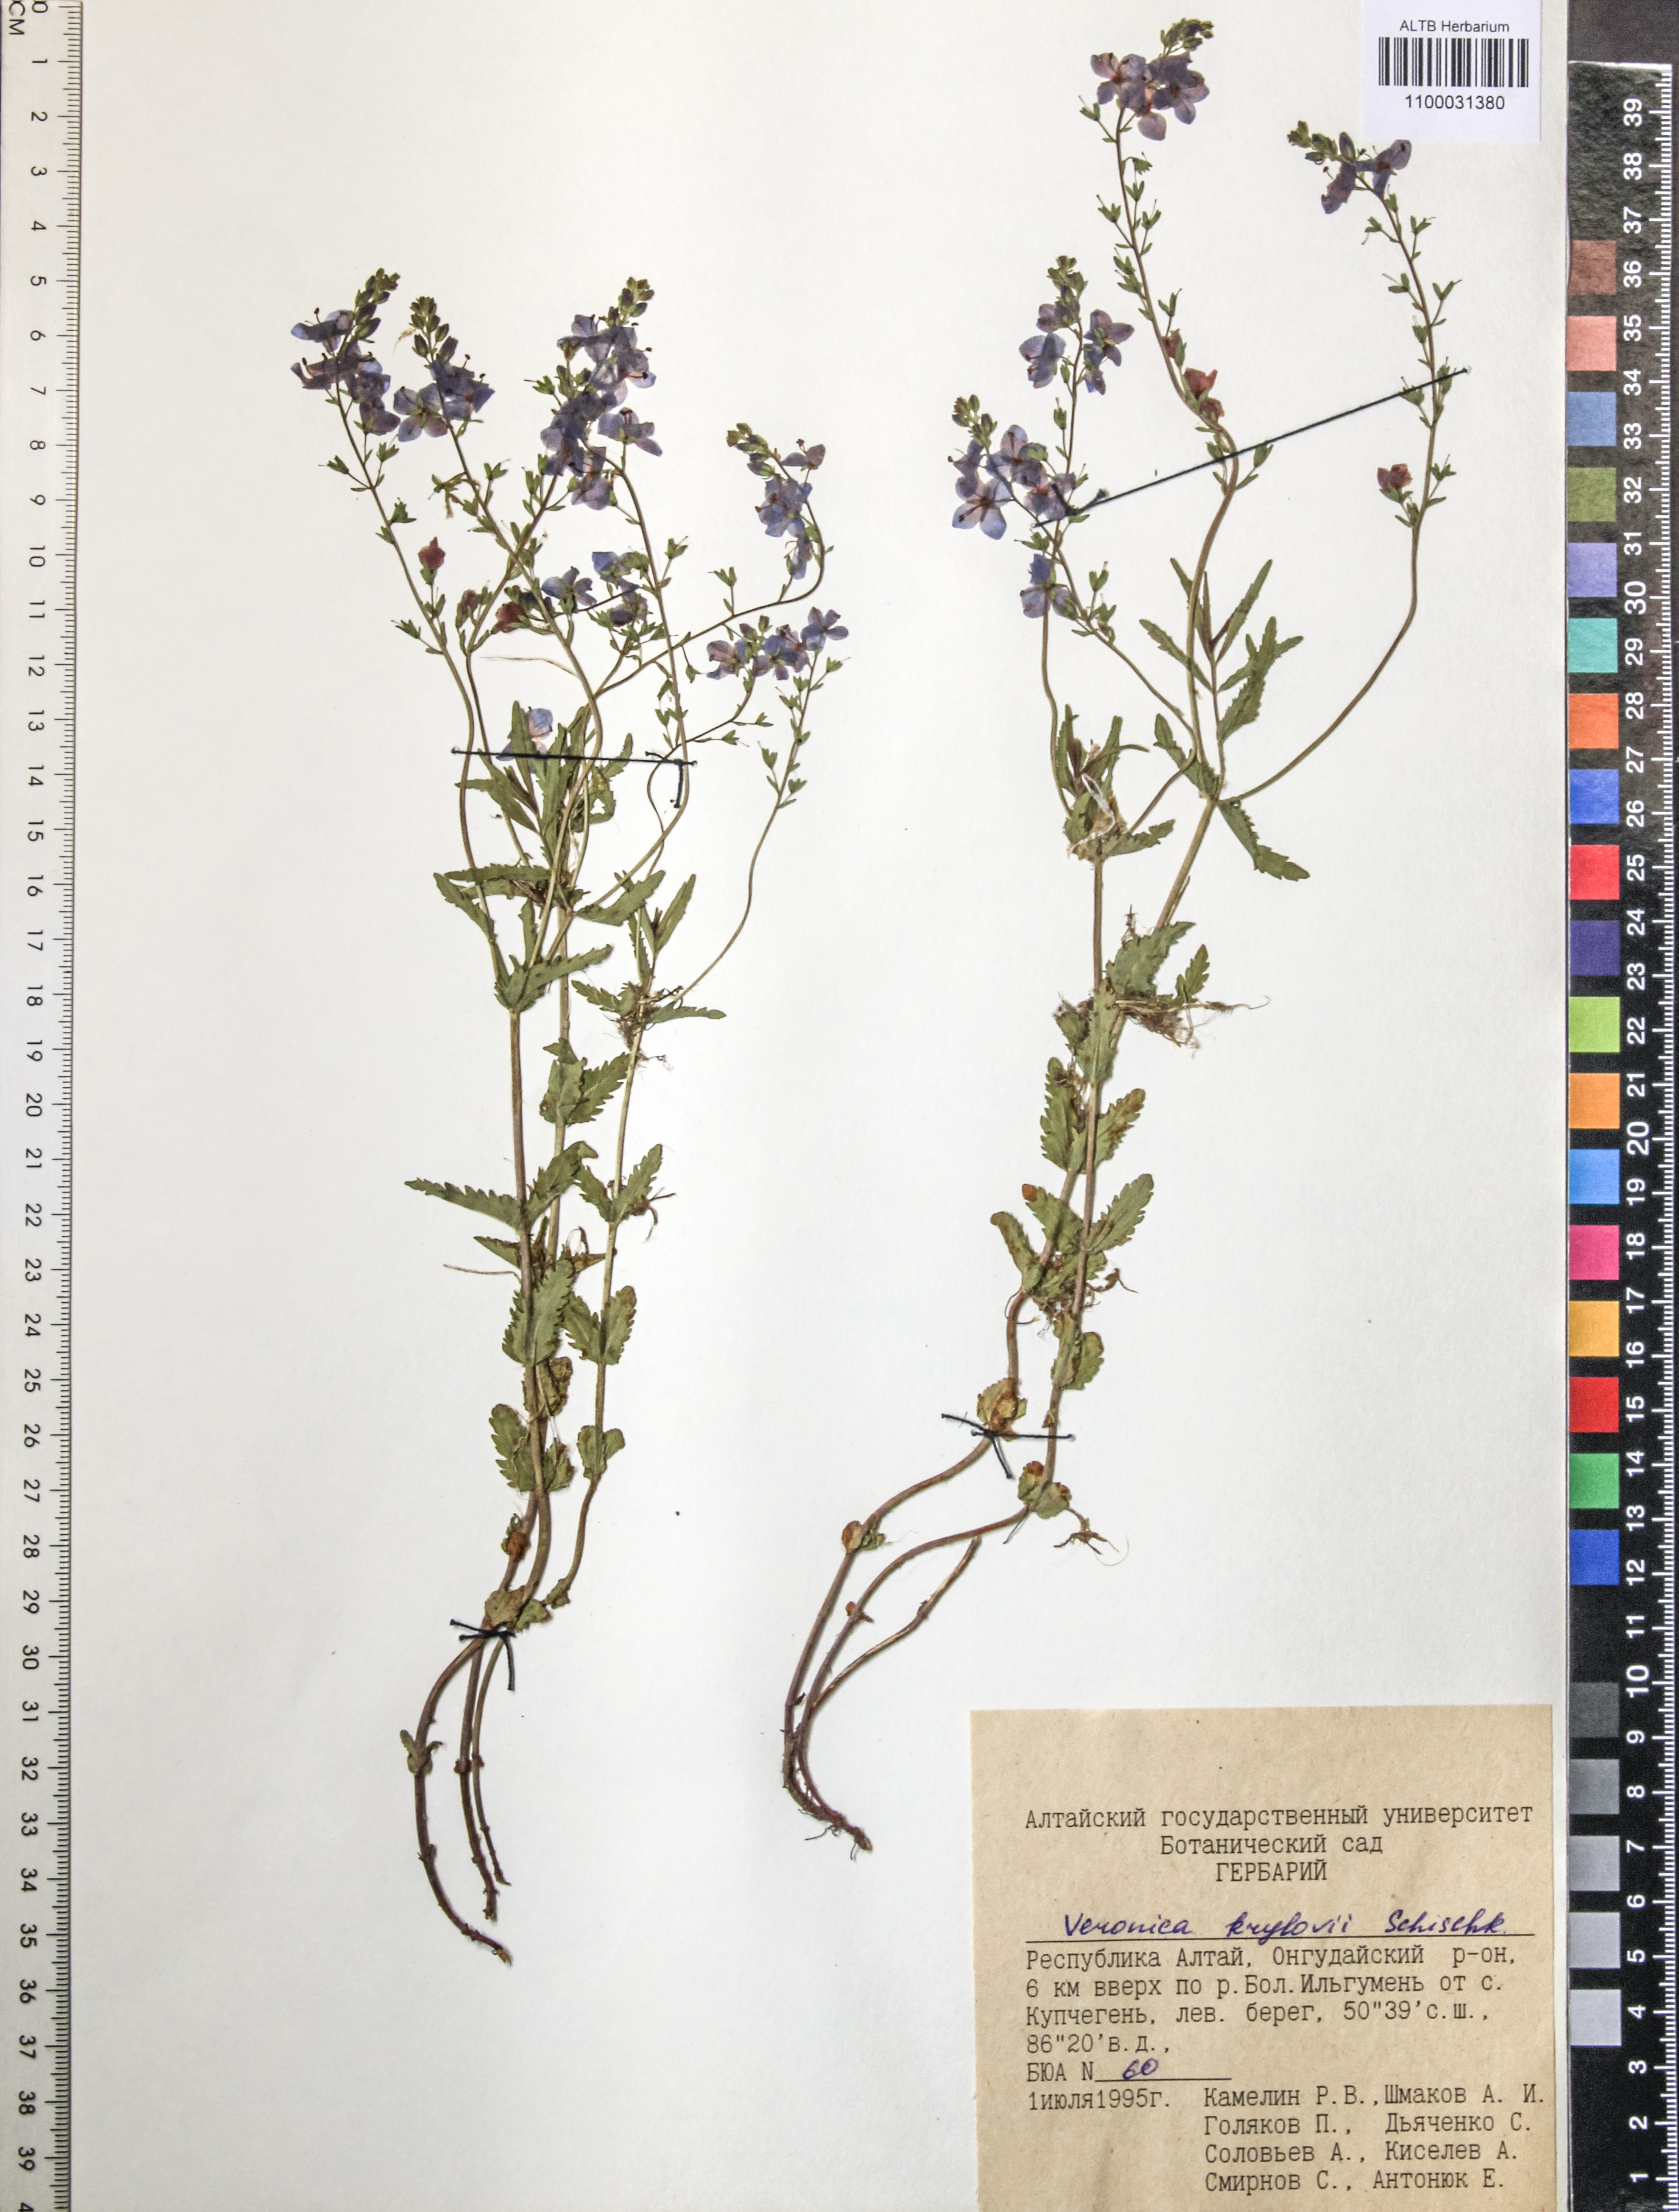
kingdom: Plantae
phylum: Tracheophyta
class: Magnoliopsida
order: Lamiales
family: Plantaginaceae
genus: Veronica
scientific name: Veronica krylovii
